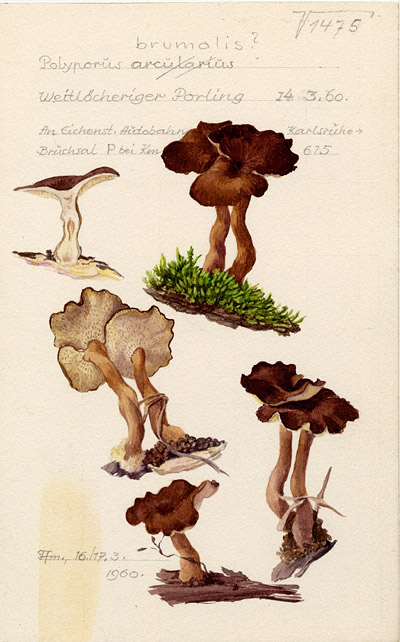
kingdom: Fungi
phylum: Basidiomycota
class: Agaricomycetes
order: Polyporales
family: Polyporaceae
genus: Lentinus
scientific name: Lentinus brumalis
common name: Winter polypore
